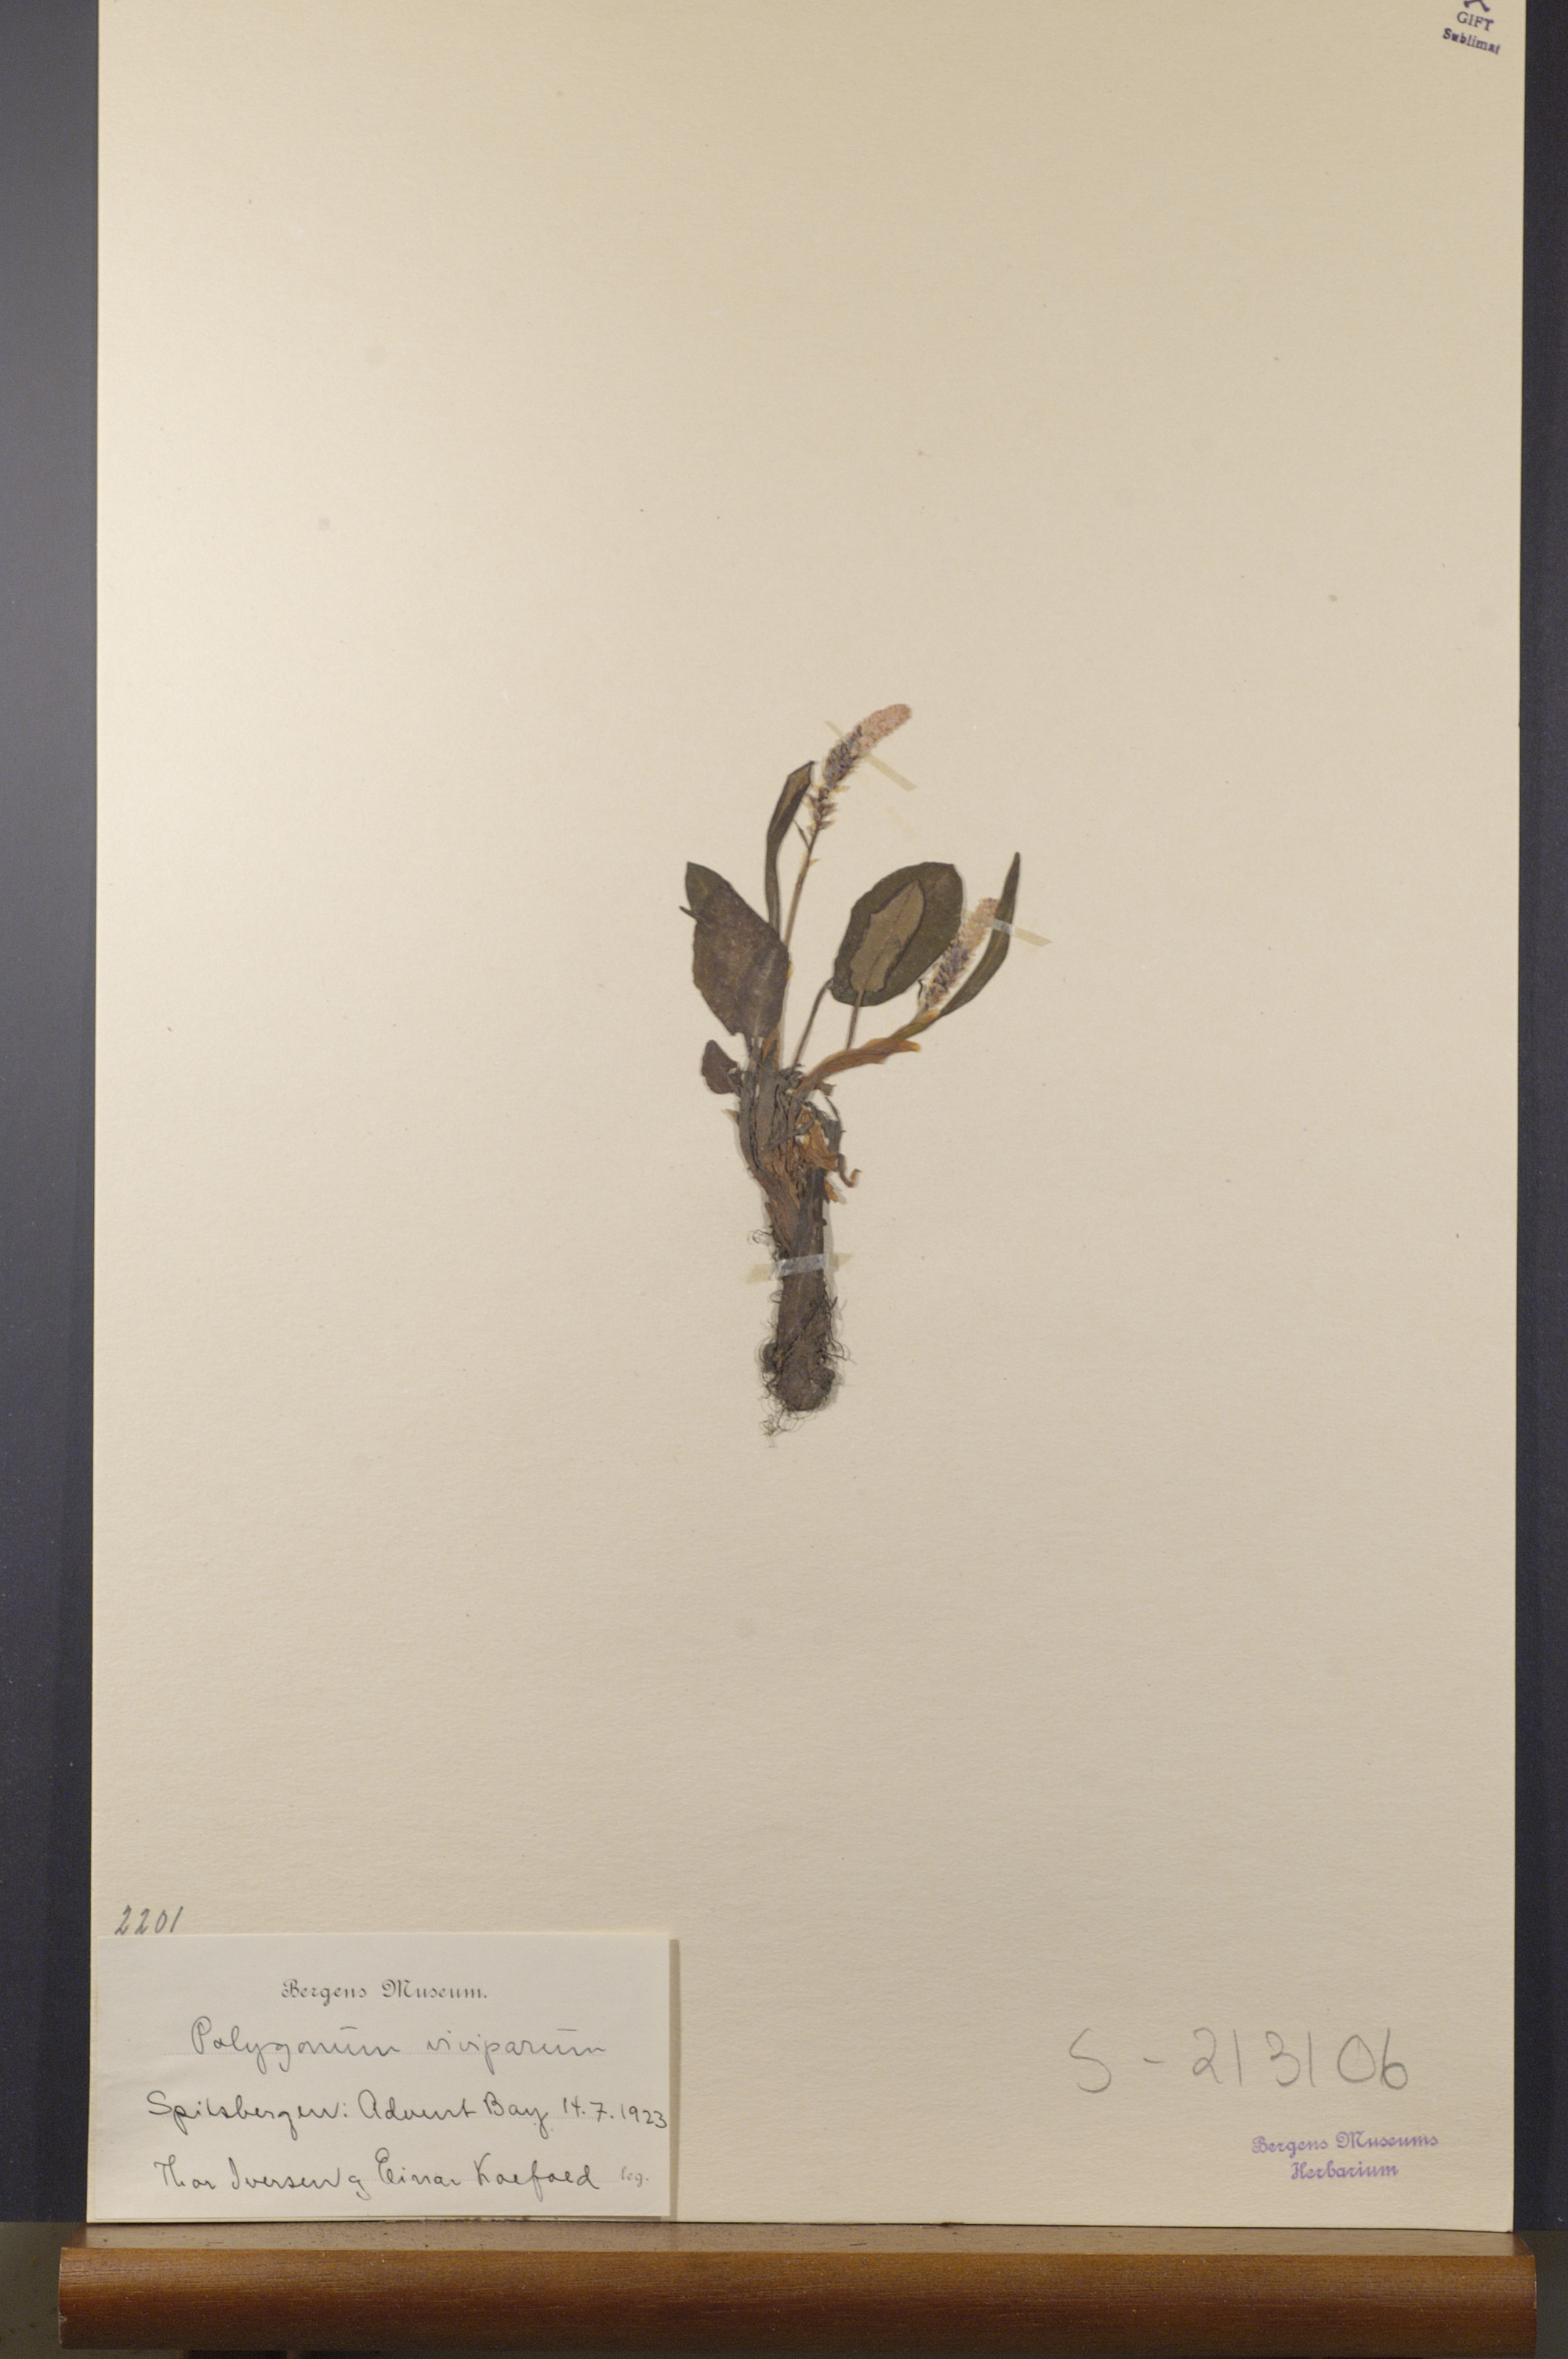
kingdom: Plantae
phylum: Tracheophyta
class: Magnoliopsida
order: Caryophyllales
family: Polygonaceae
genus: Bistorta
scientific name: Bistorta vivipara
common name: Alpine bistort
